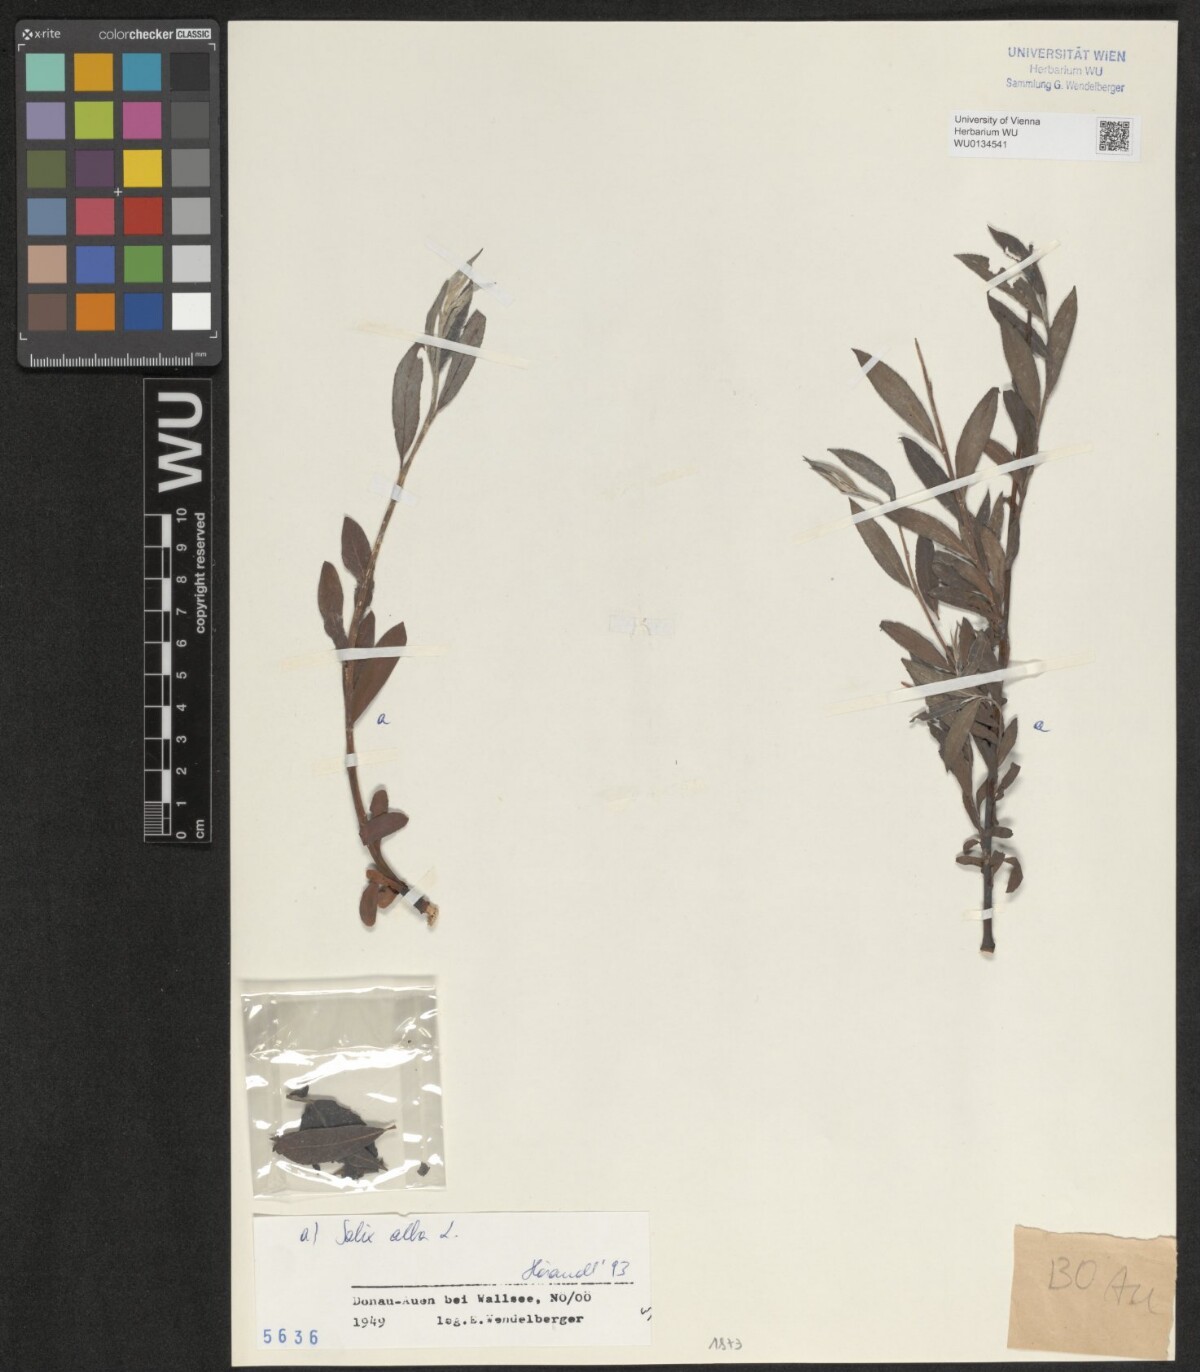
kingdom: Plantae
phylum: Tracheophyta
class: Magnoliopsida
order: Malpighiales
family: Salicaceae
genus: Salix
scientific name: Salix alba
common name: White willow
